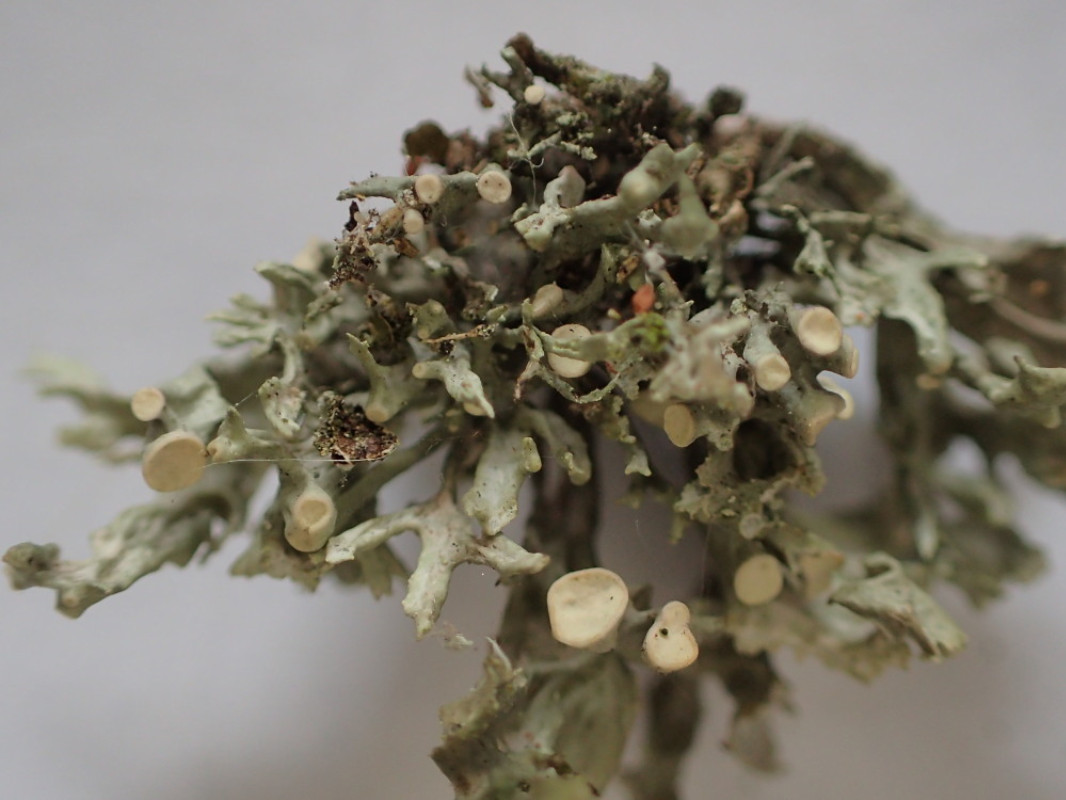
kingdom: Fungi
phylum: Ascomycota
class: Lecanoromycetes
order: Lecanorales
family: Ramalinaceae
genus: Ramalina
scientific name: Ramalina fastigiata
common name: tue-grenlav
